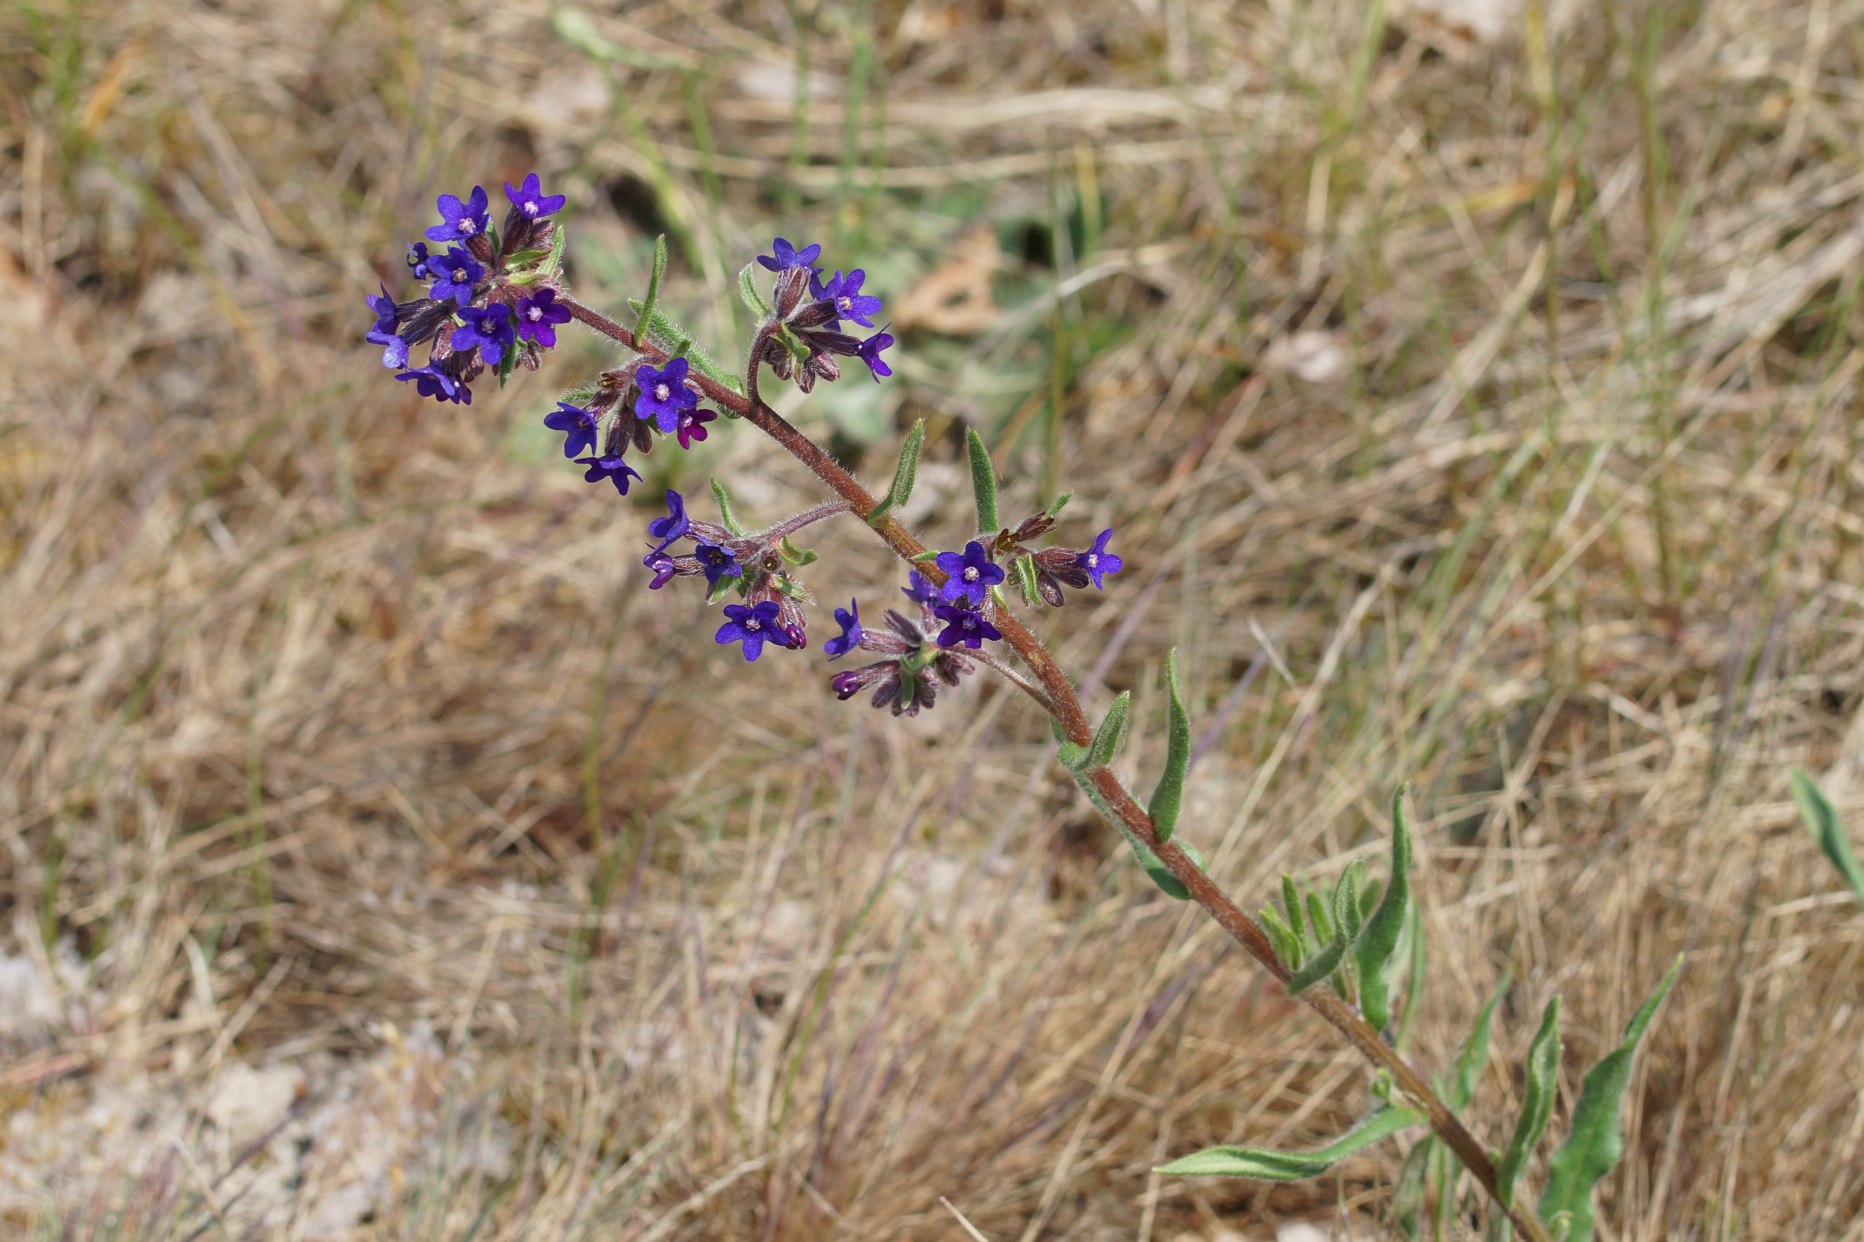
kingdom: Plantae
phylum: Tracheophyta
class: Magnoliopsida
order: Boraginales
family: Boraginaceae
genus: Anchusa
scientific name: Anchusa officinalis
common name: Læge-oksetunge
